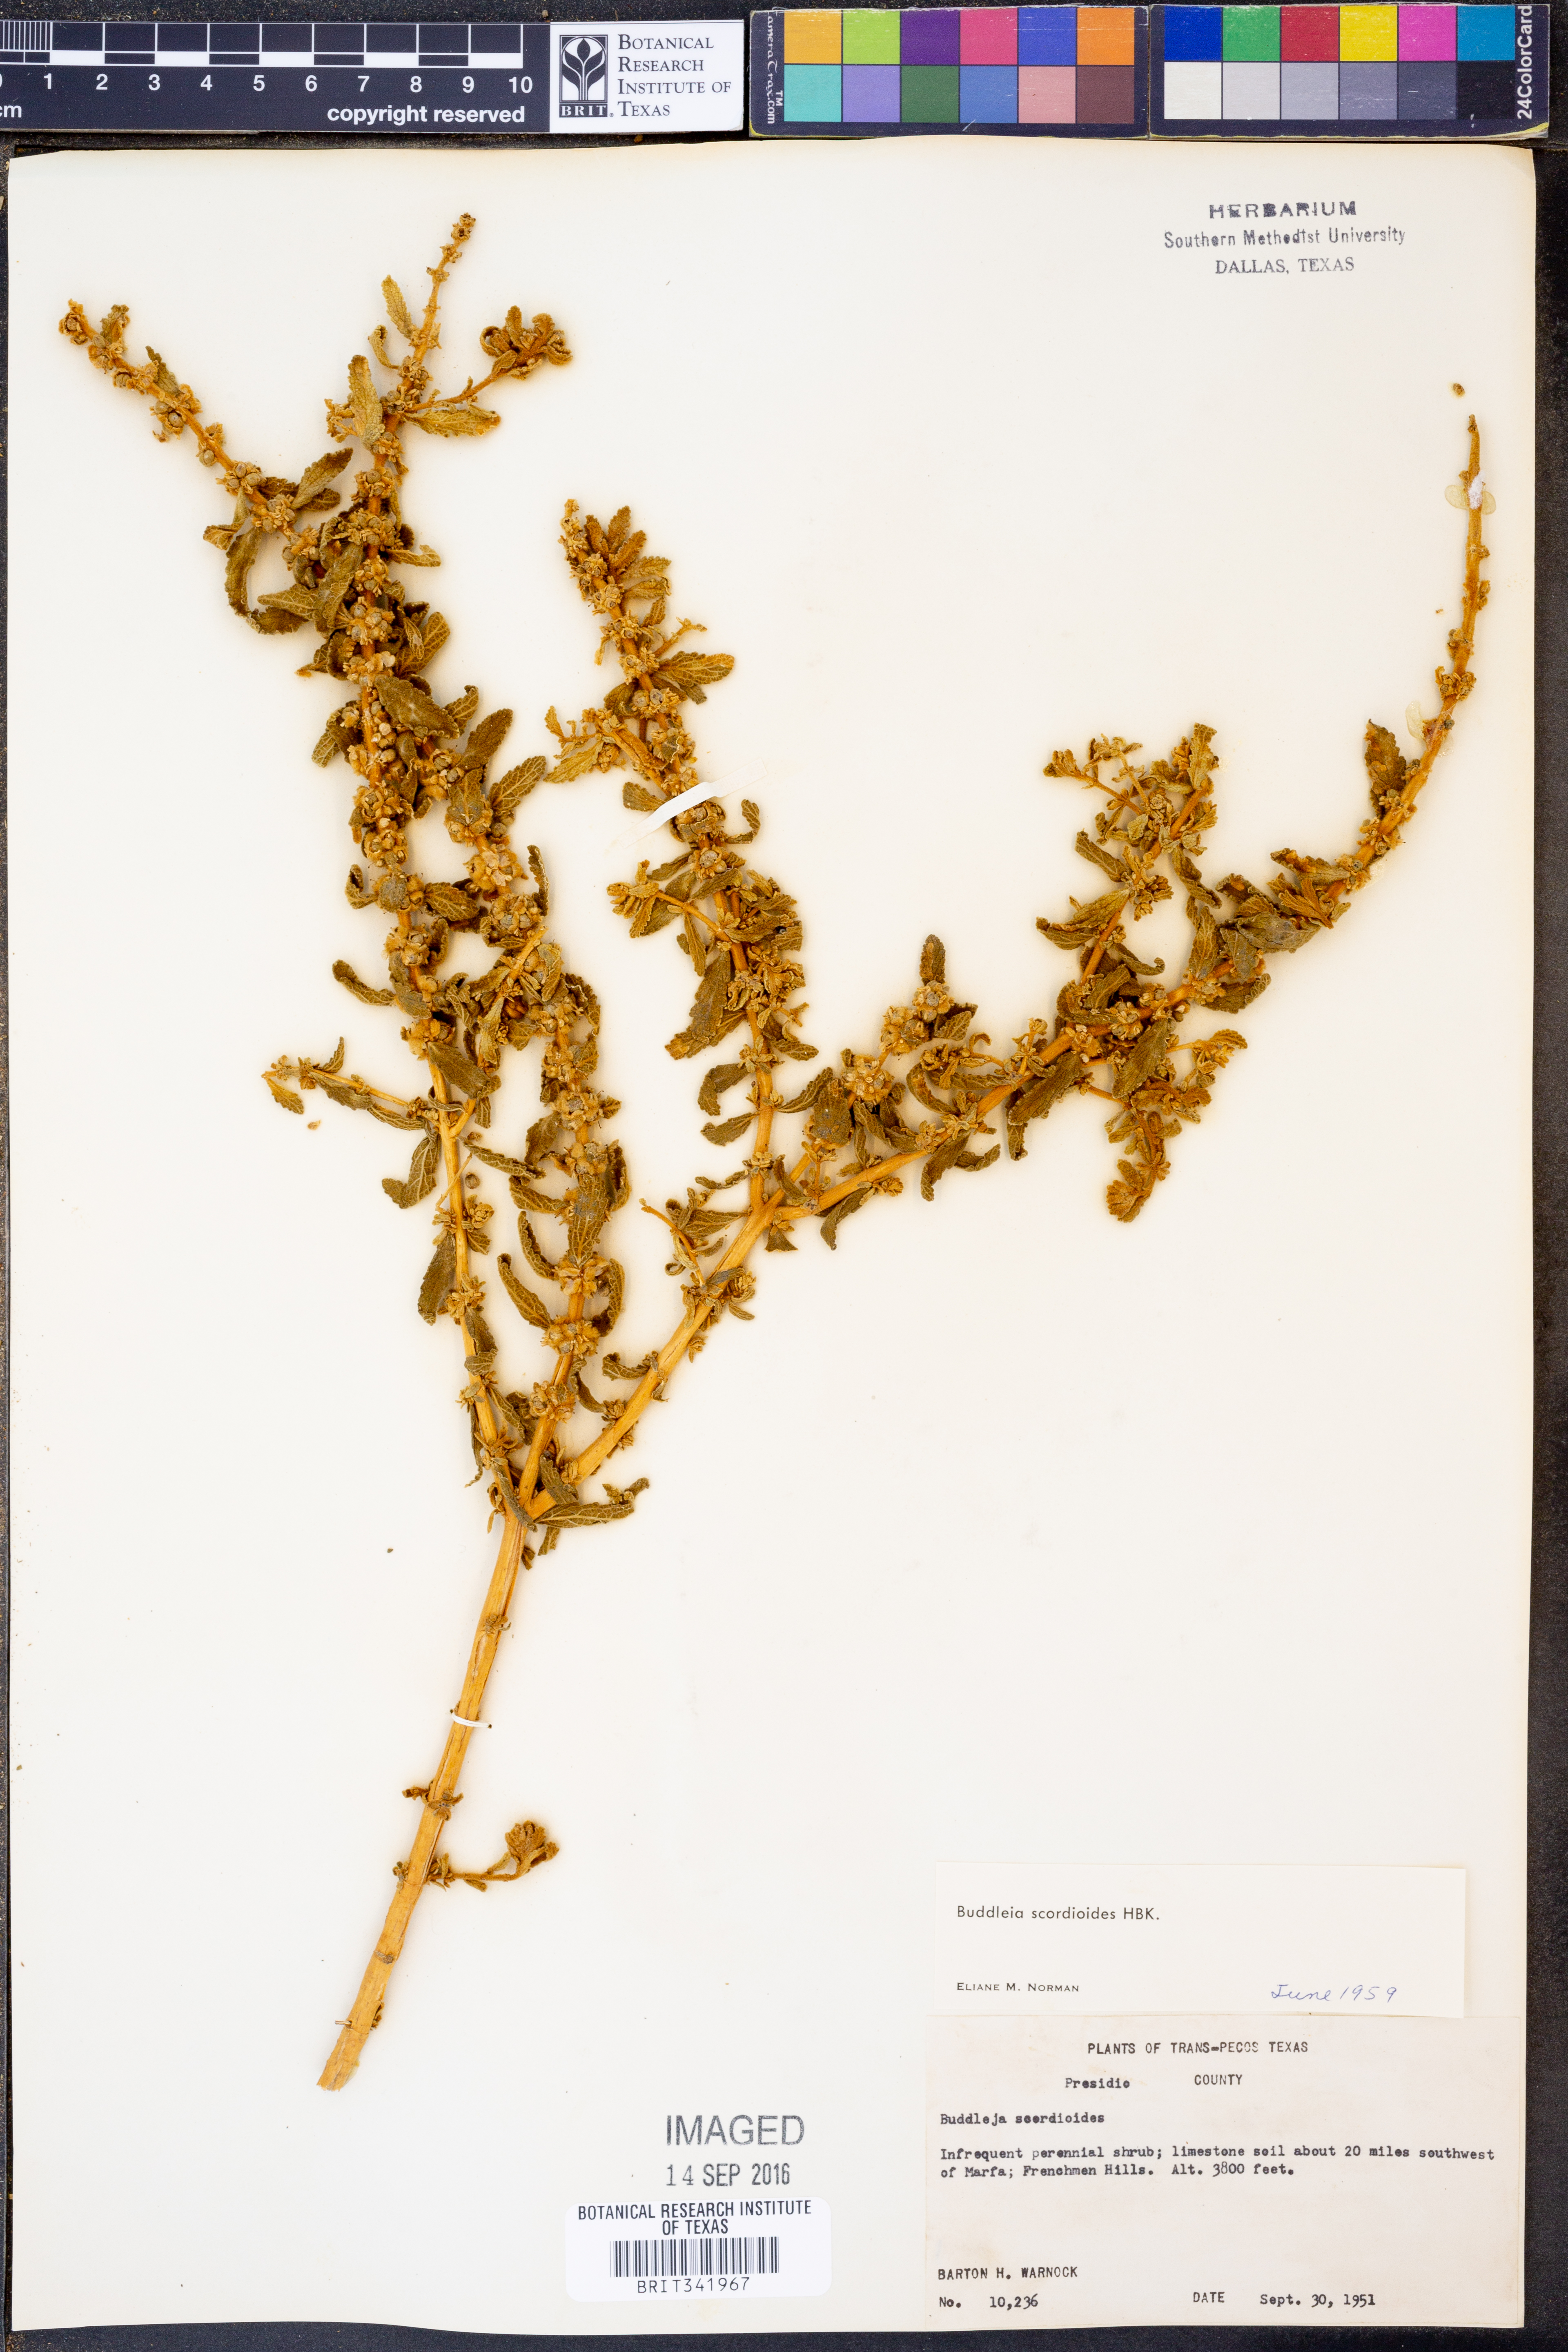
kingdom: Plantae
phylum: Tracheophyta
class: Magnoliopsida
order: Lamiales
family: Scrophulariaceae
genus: Buddleja
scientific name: Buddleja scordioides
